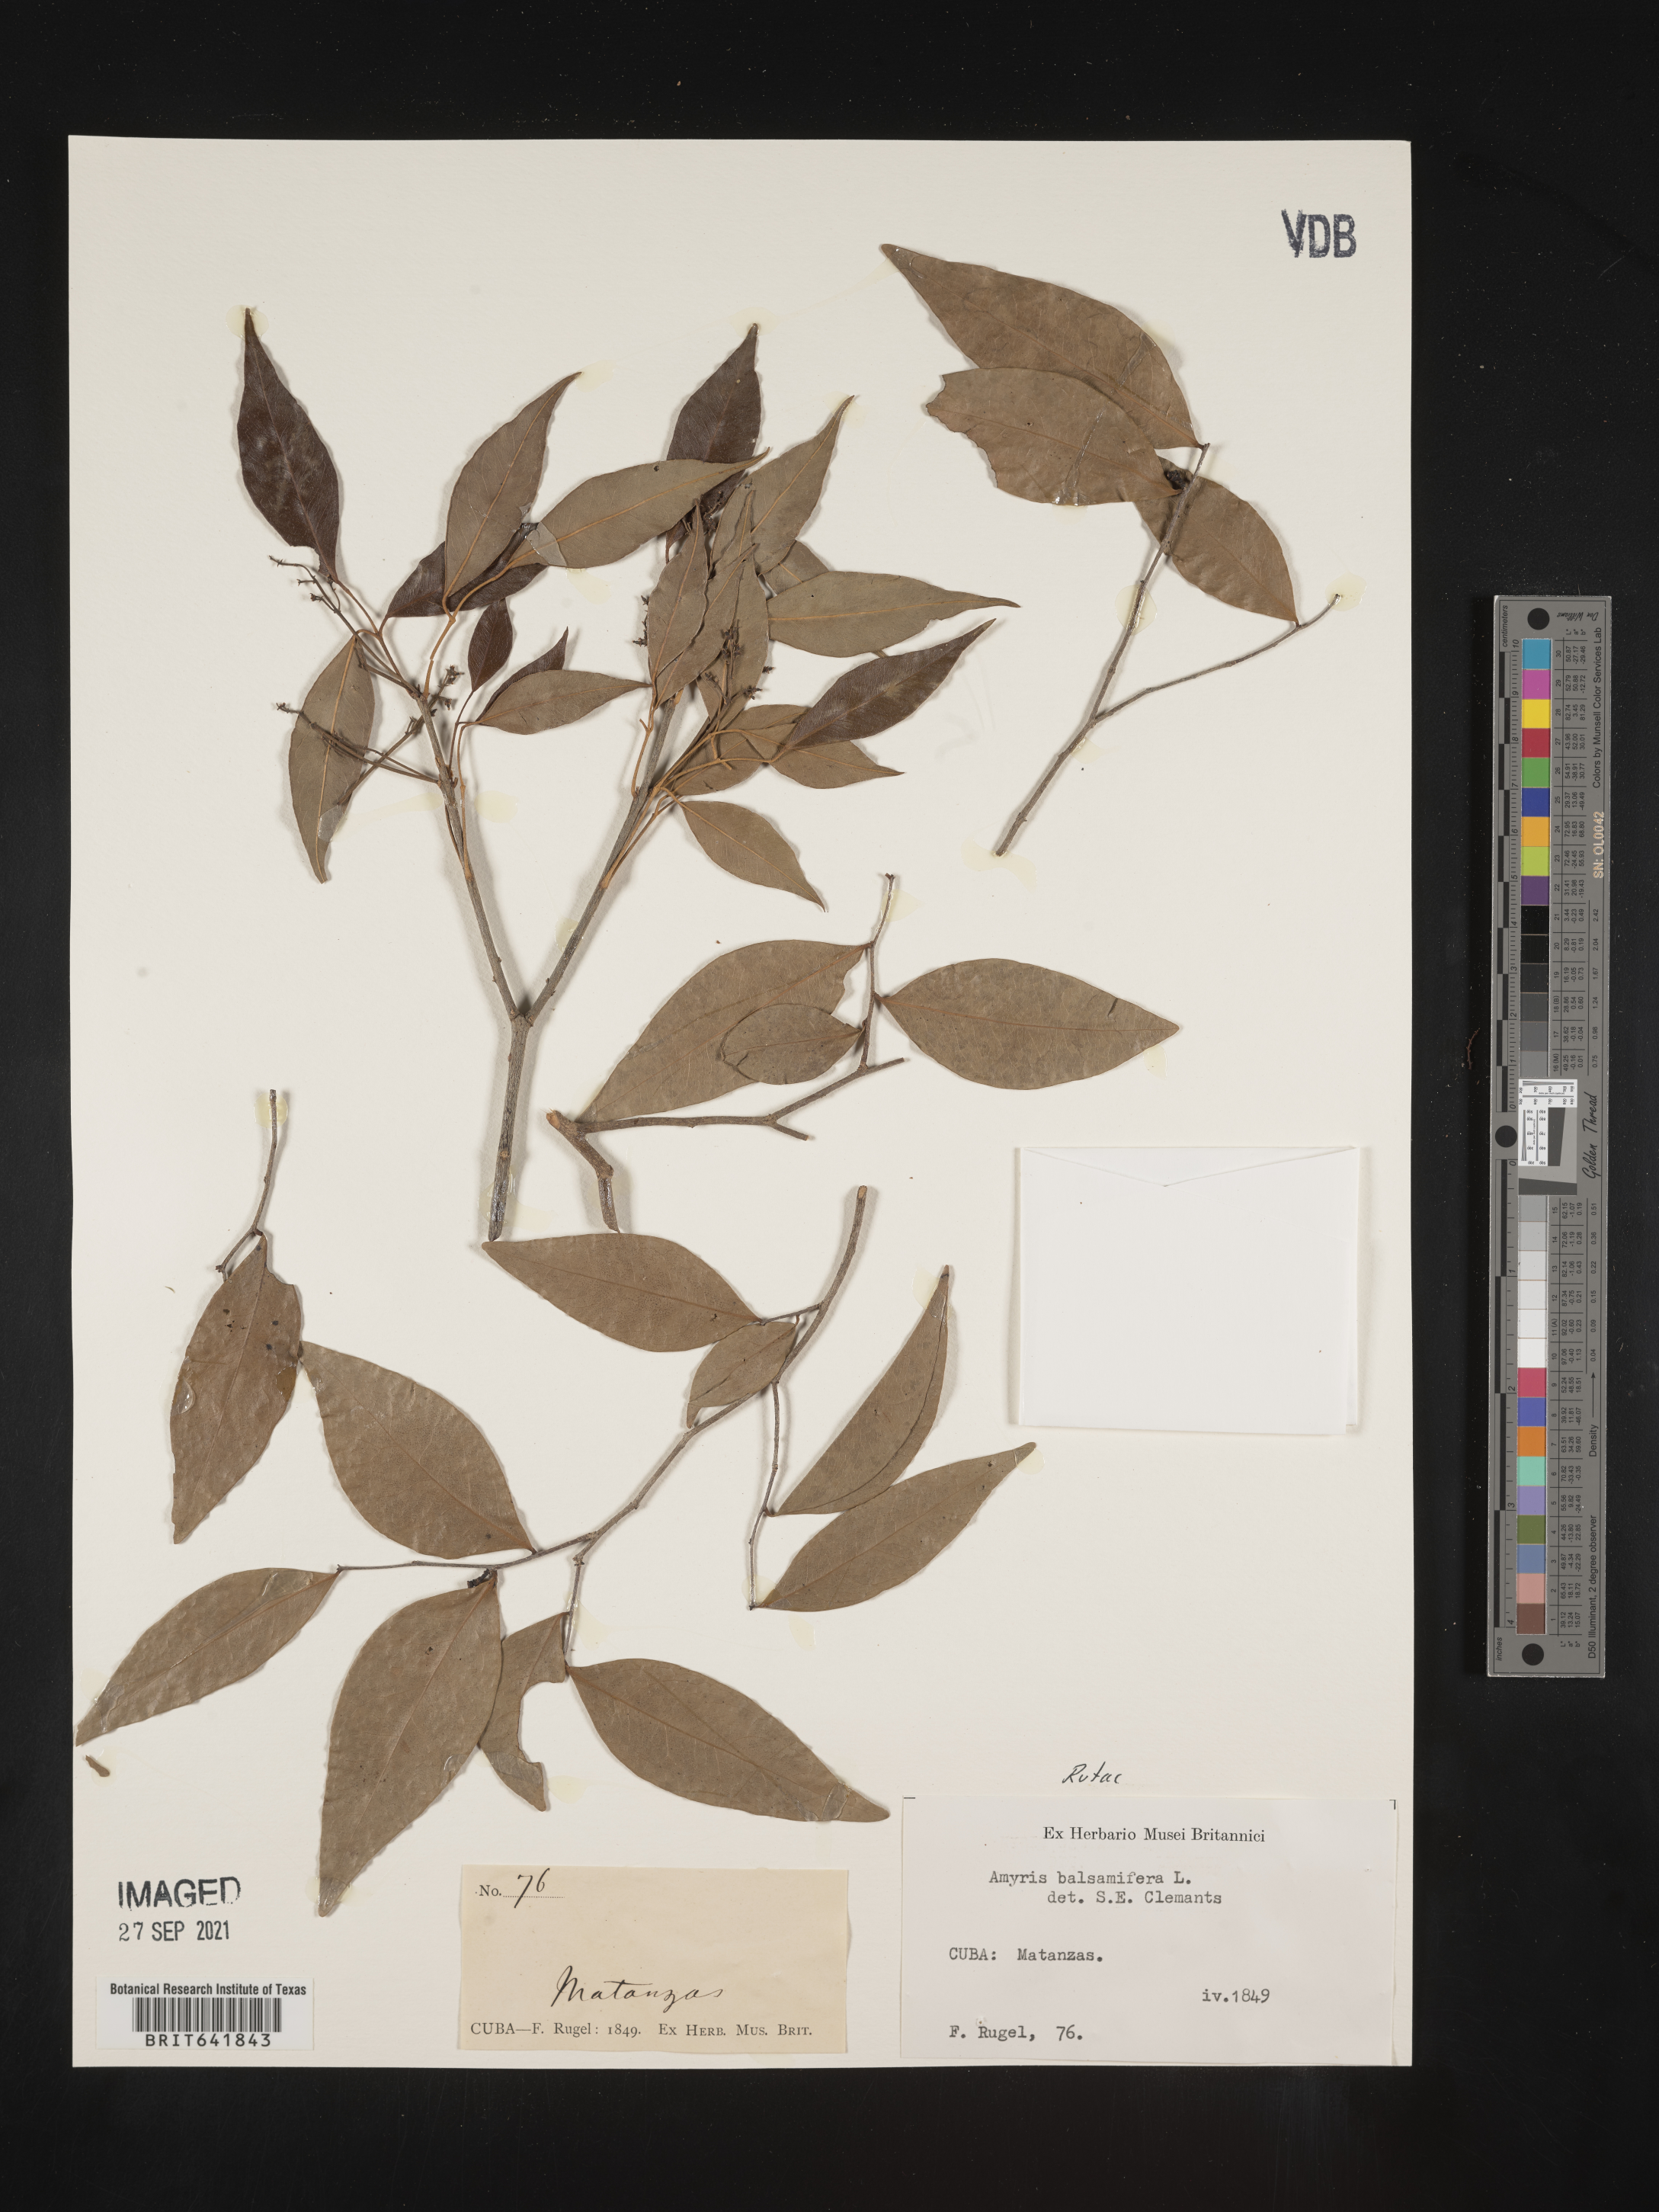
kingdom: Plantae
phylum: Tracheophyta
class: Magnoliopsida
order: Sapindales
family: Rutaceae
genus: Amyris
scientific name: Amyris
